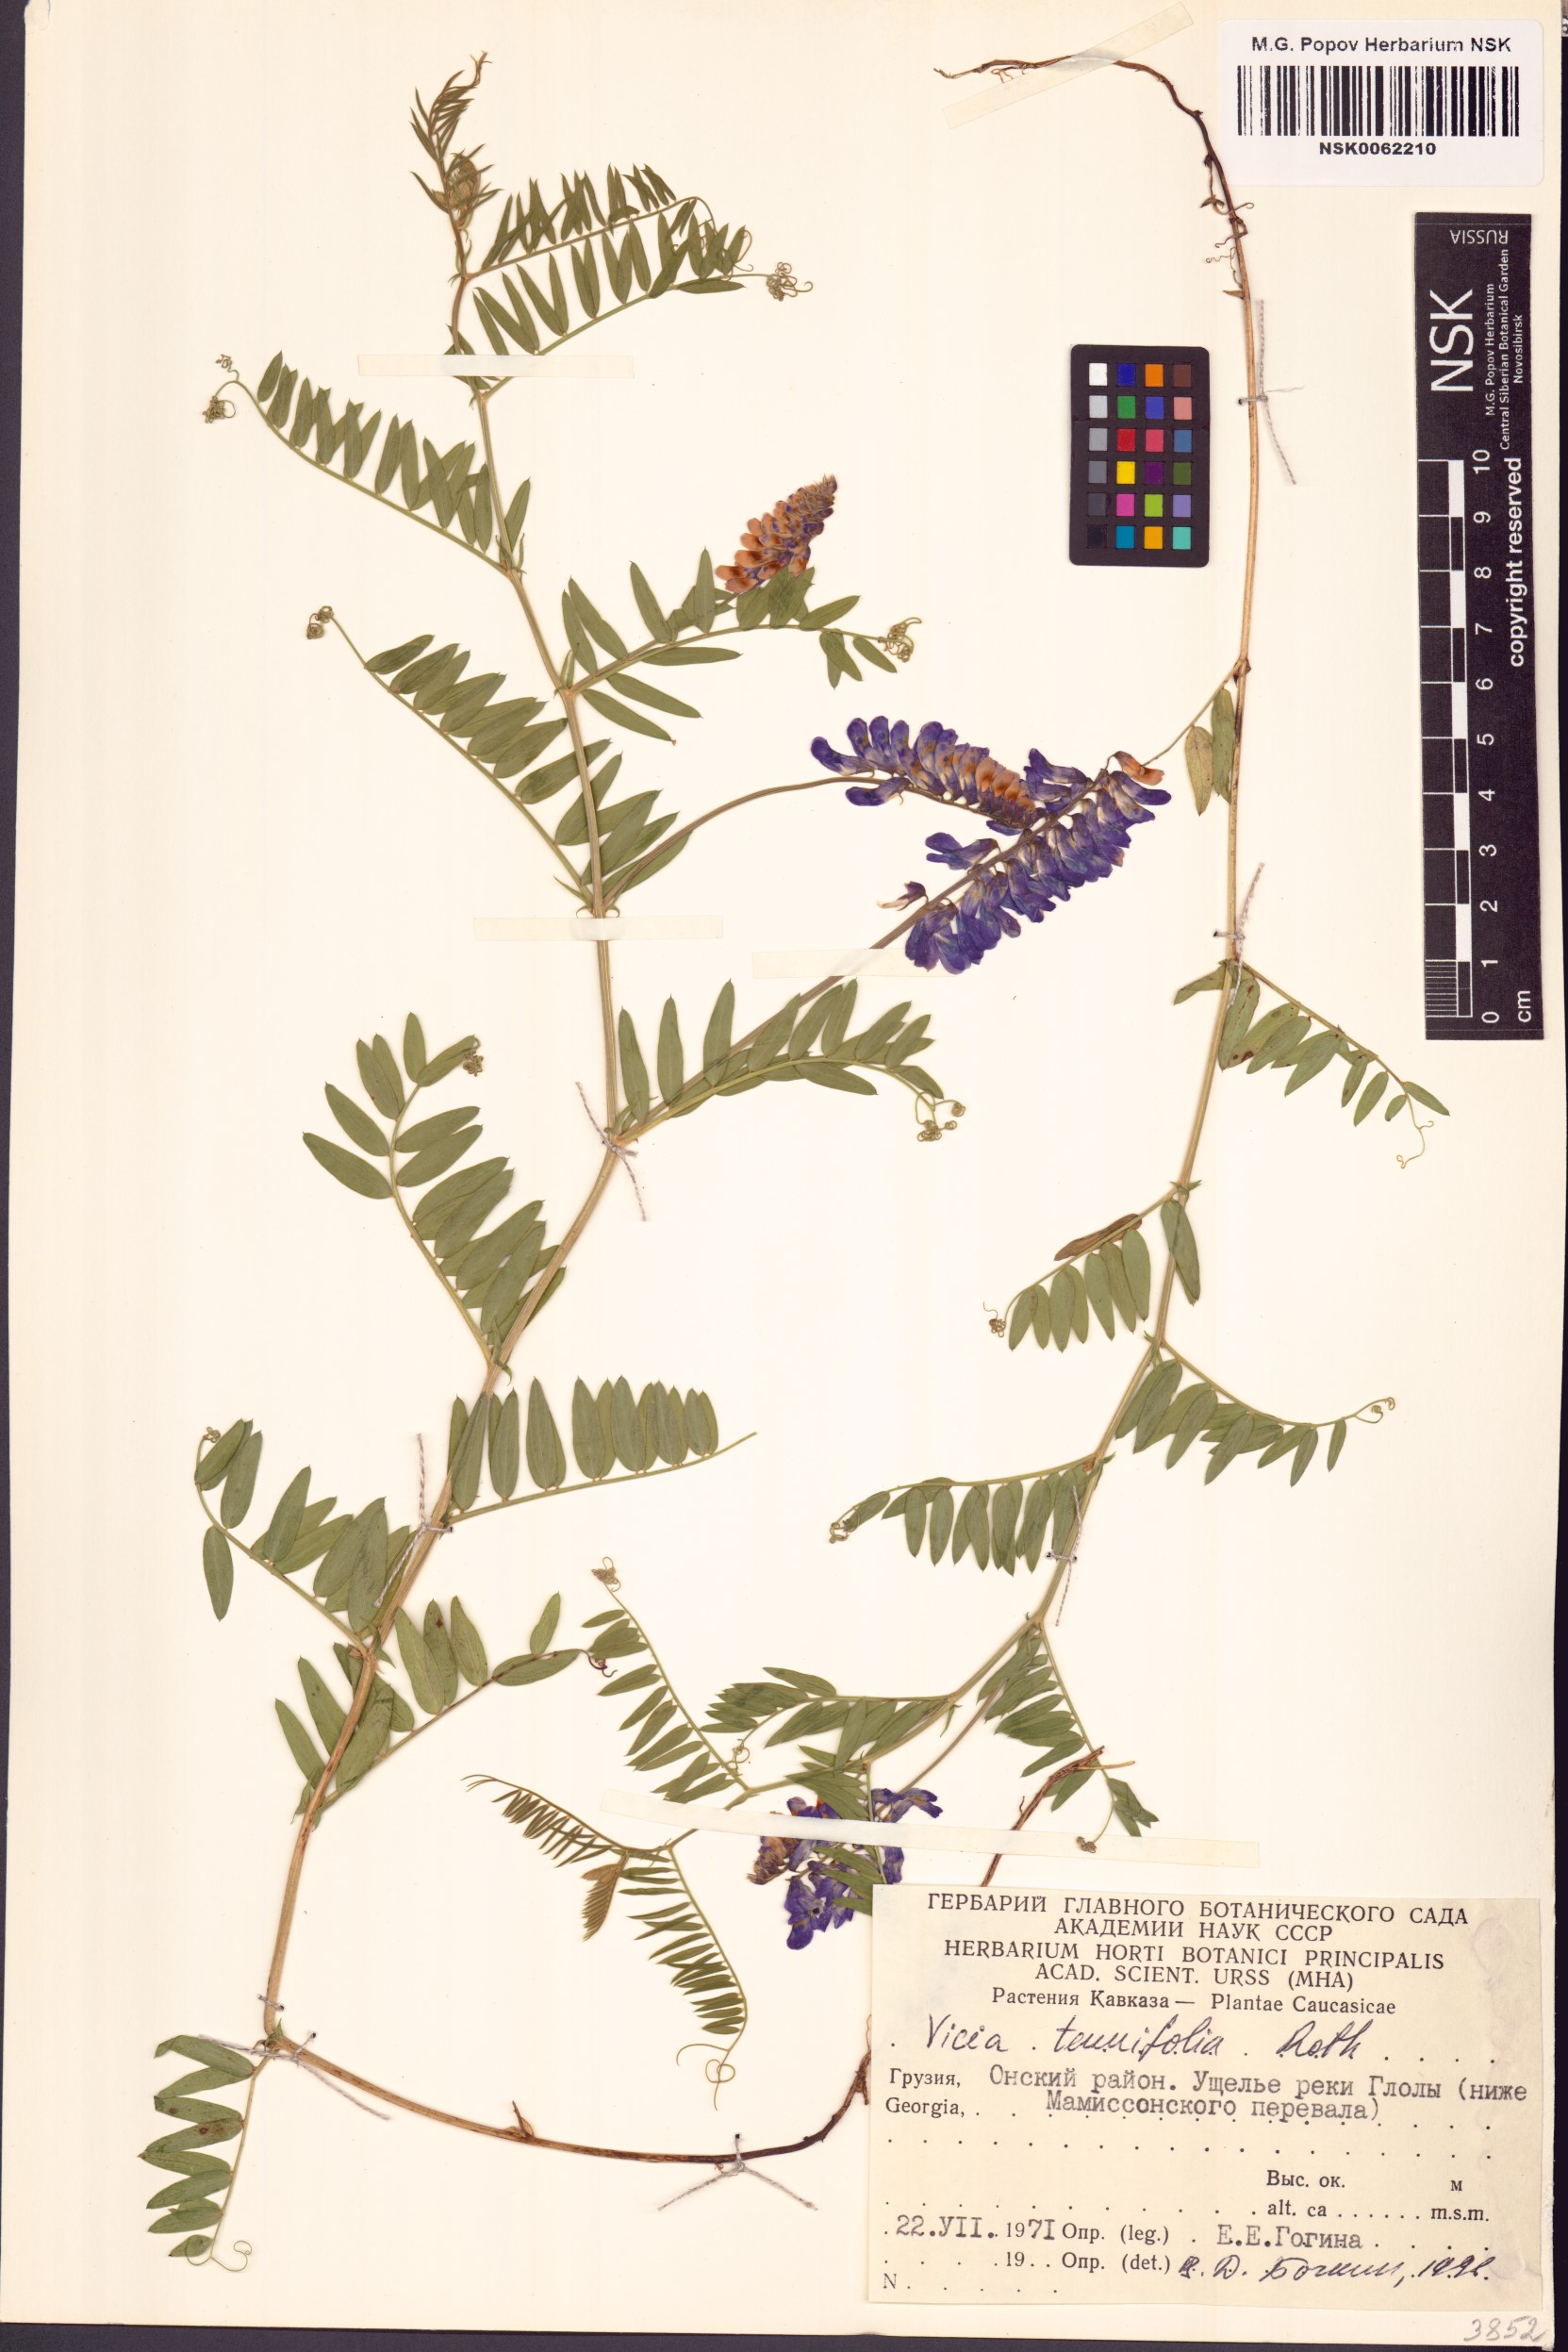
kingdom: Plantae
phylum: Tracheophyta
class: Magnoliopsida
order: Fabales
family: Fabaceae
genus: Vicia
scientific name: Vicia tenuifolia
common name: Fine-leaved vetch
